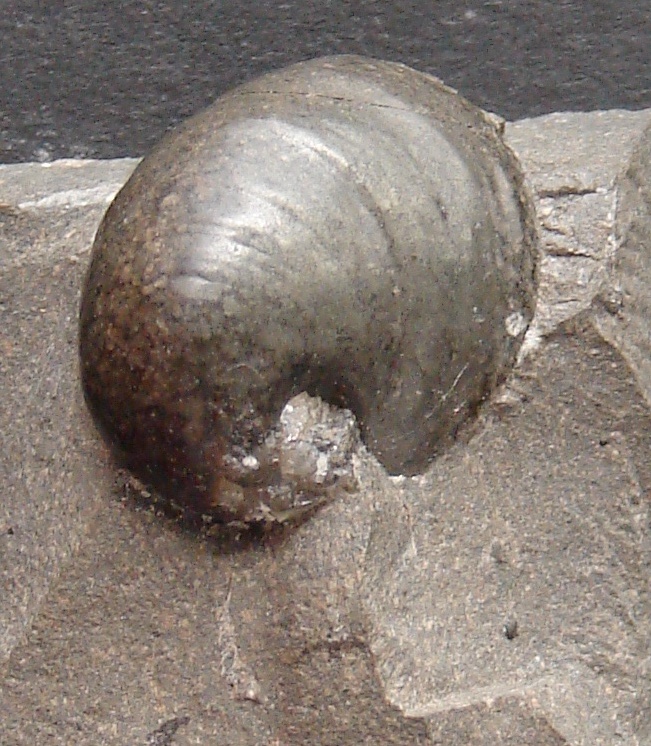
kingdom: Animalia
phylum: Mollusca
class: Gastropoda
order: Littorinimorpha
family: Capulidae
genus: Capulus
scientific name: Capulus
